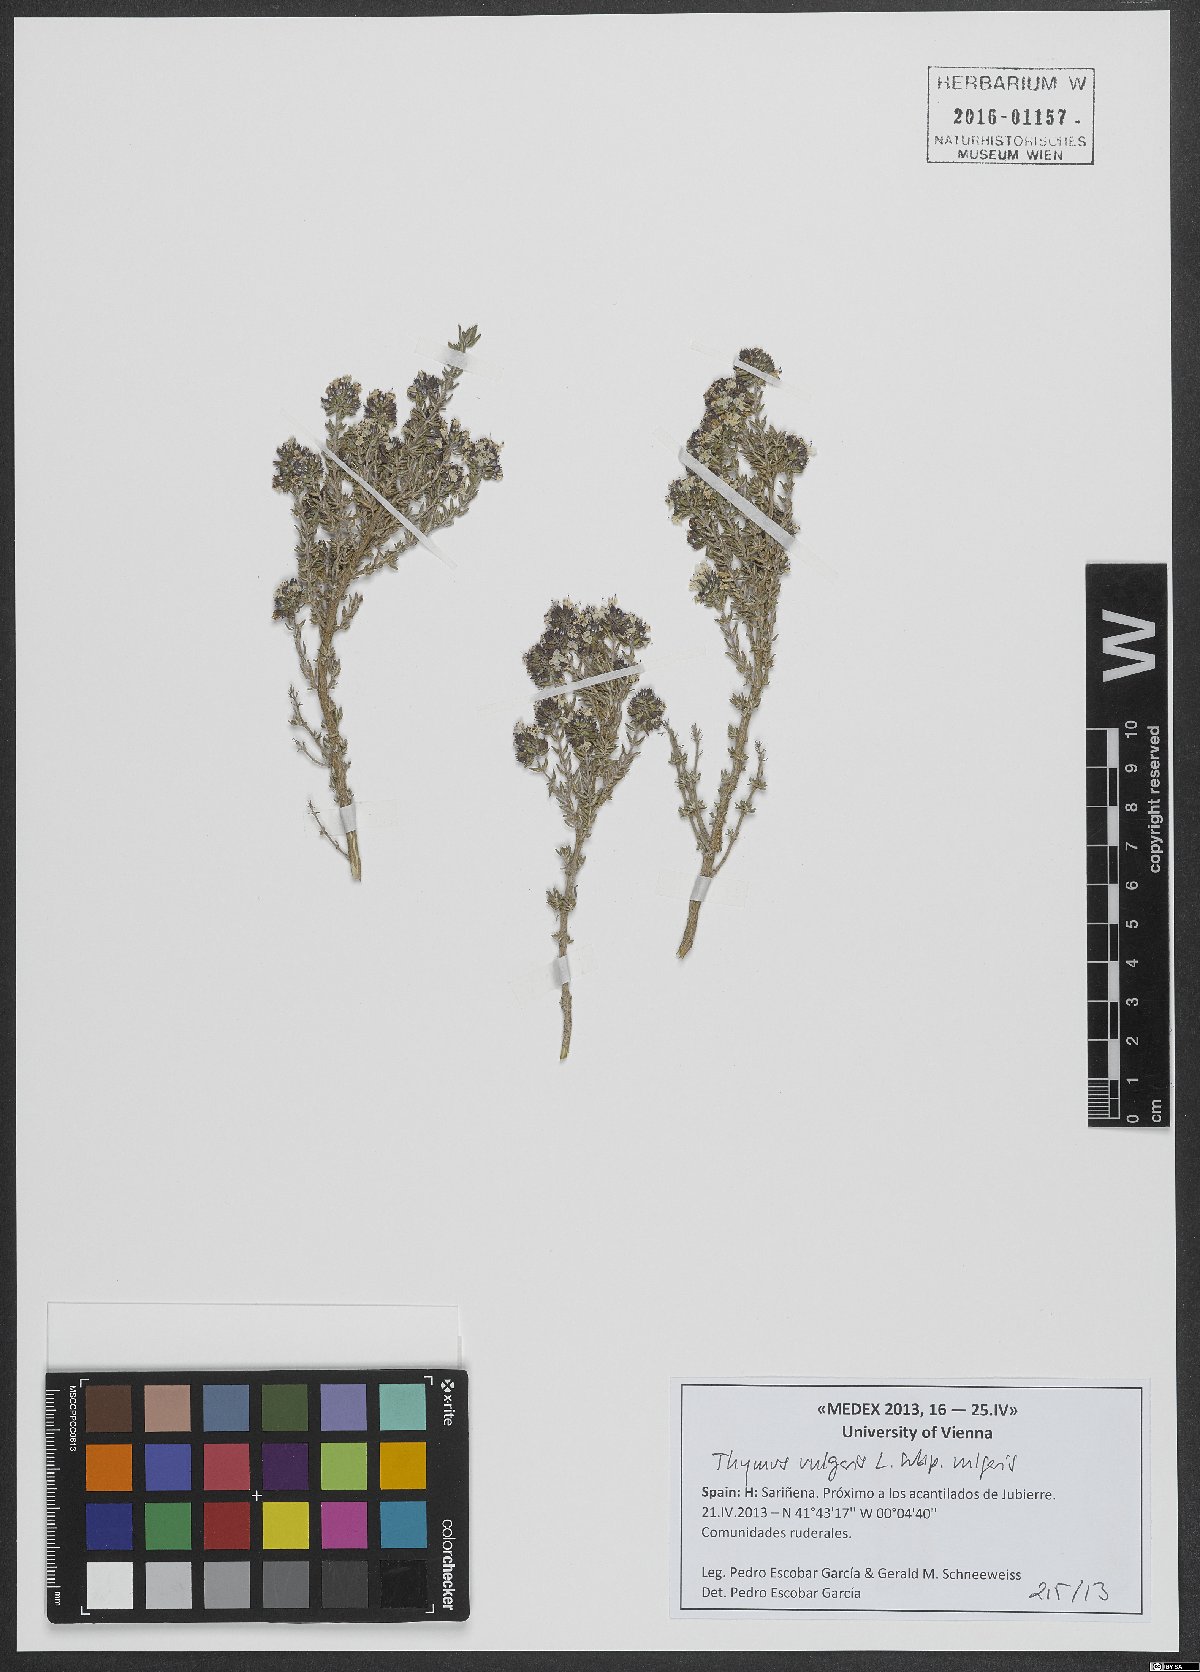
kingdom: Plantae
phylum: Tracheophyta
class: Magnoliopsida
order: Lamiales
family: Lamiaceae
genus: Thymus
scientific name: Thymus vulgaris
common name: Garden thyme
